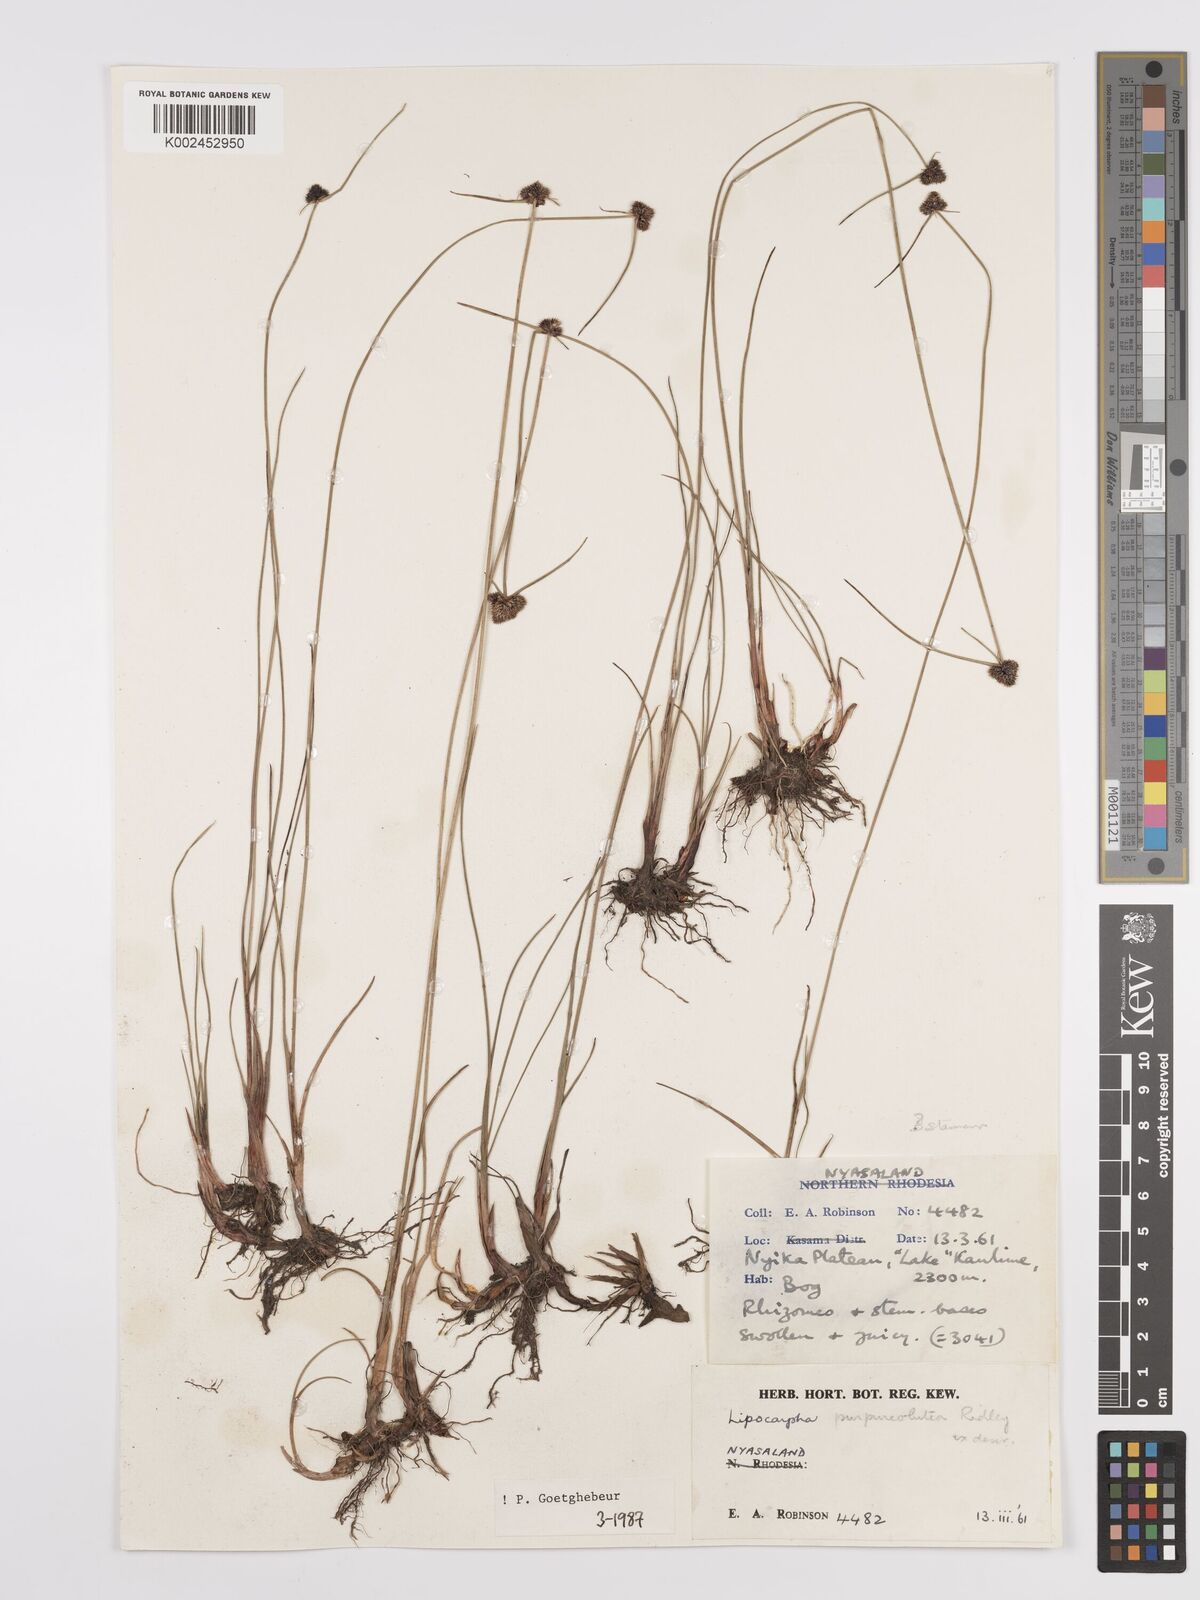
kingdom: Plantae
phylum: Tracheophyta
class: Liliopsida
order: Poales
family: Cyperaceae
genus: Cyperus
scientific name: Cyperus albiceps
